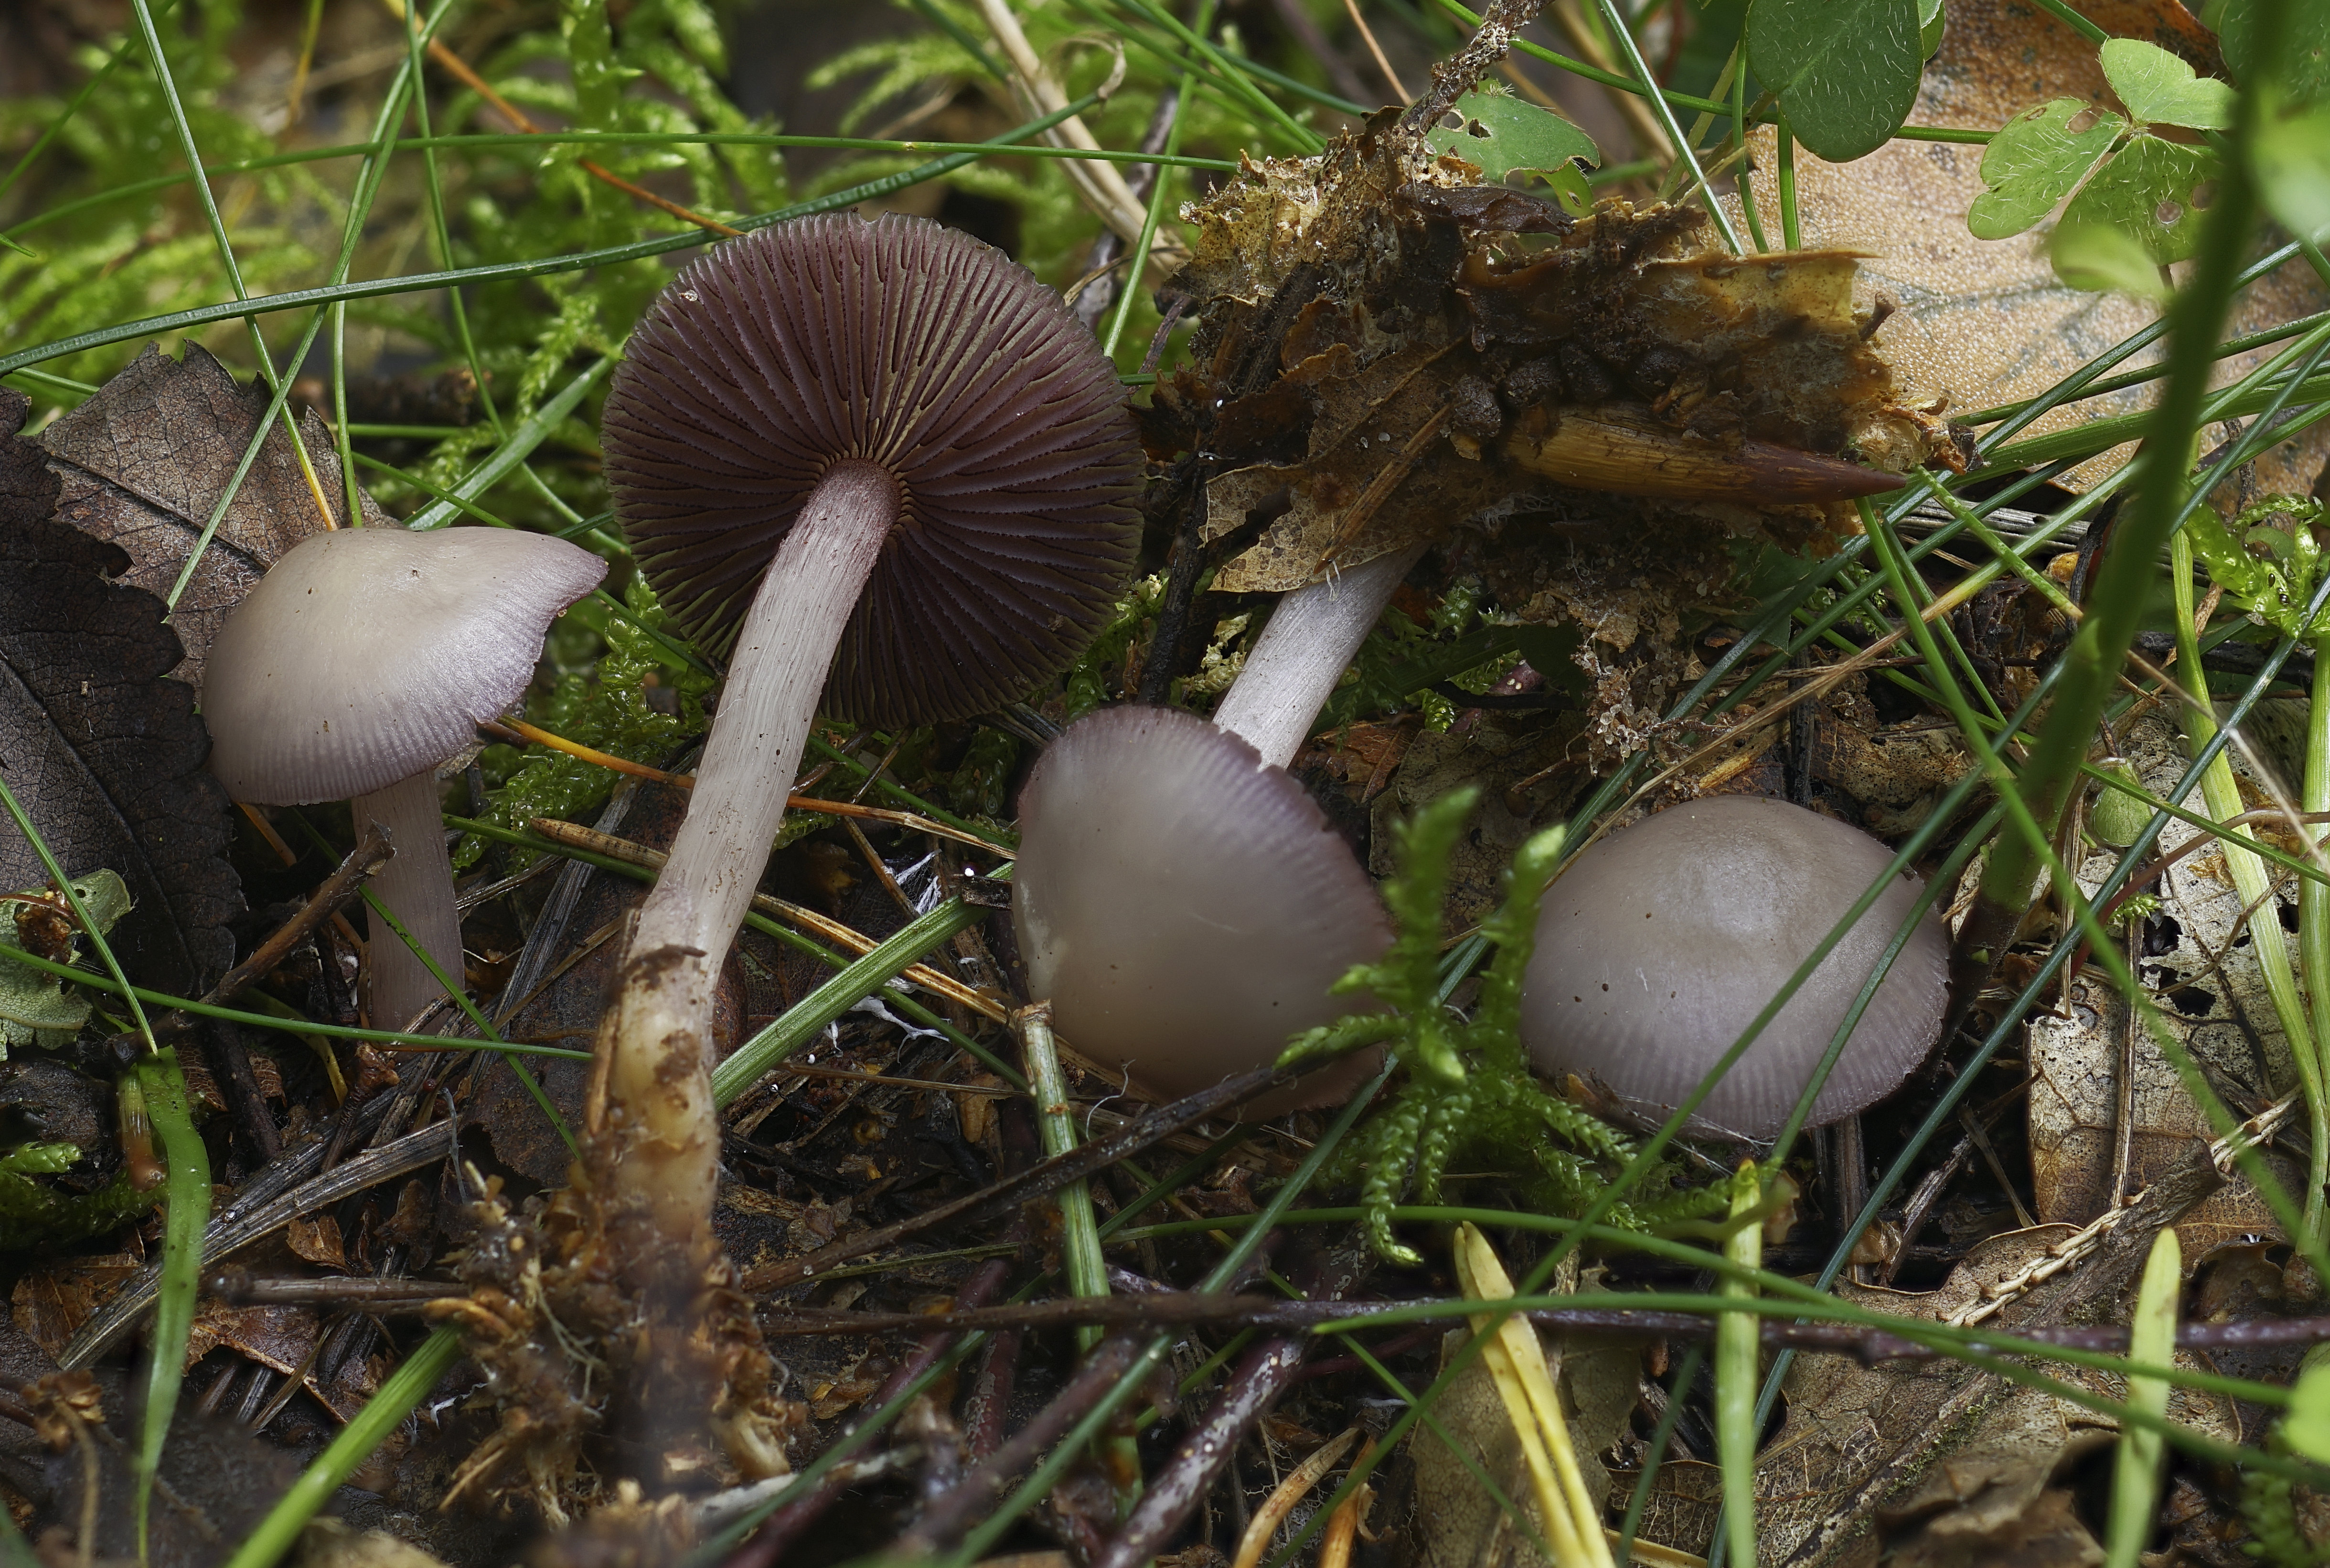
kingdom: Fungi
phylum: Basidiomycota
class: Agaricomycetes
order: Agaricales
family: Mycenaceae
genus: Mycena
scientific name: Mycena pelianthina
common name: mørkbladet huesvamp
